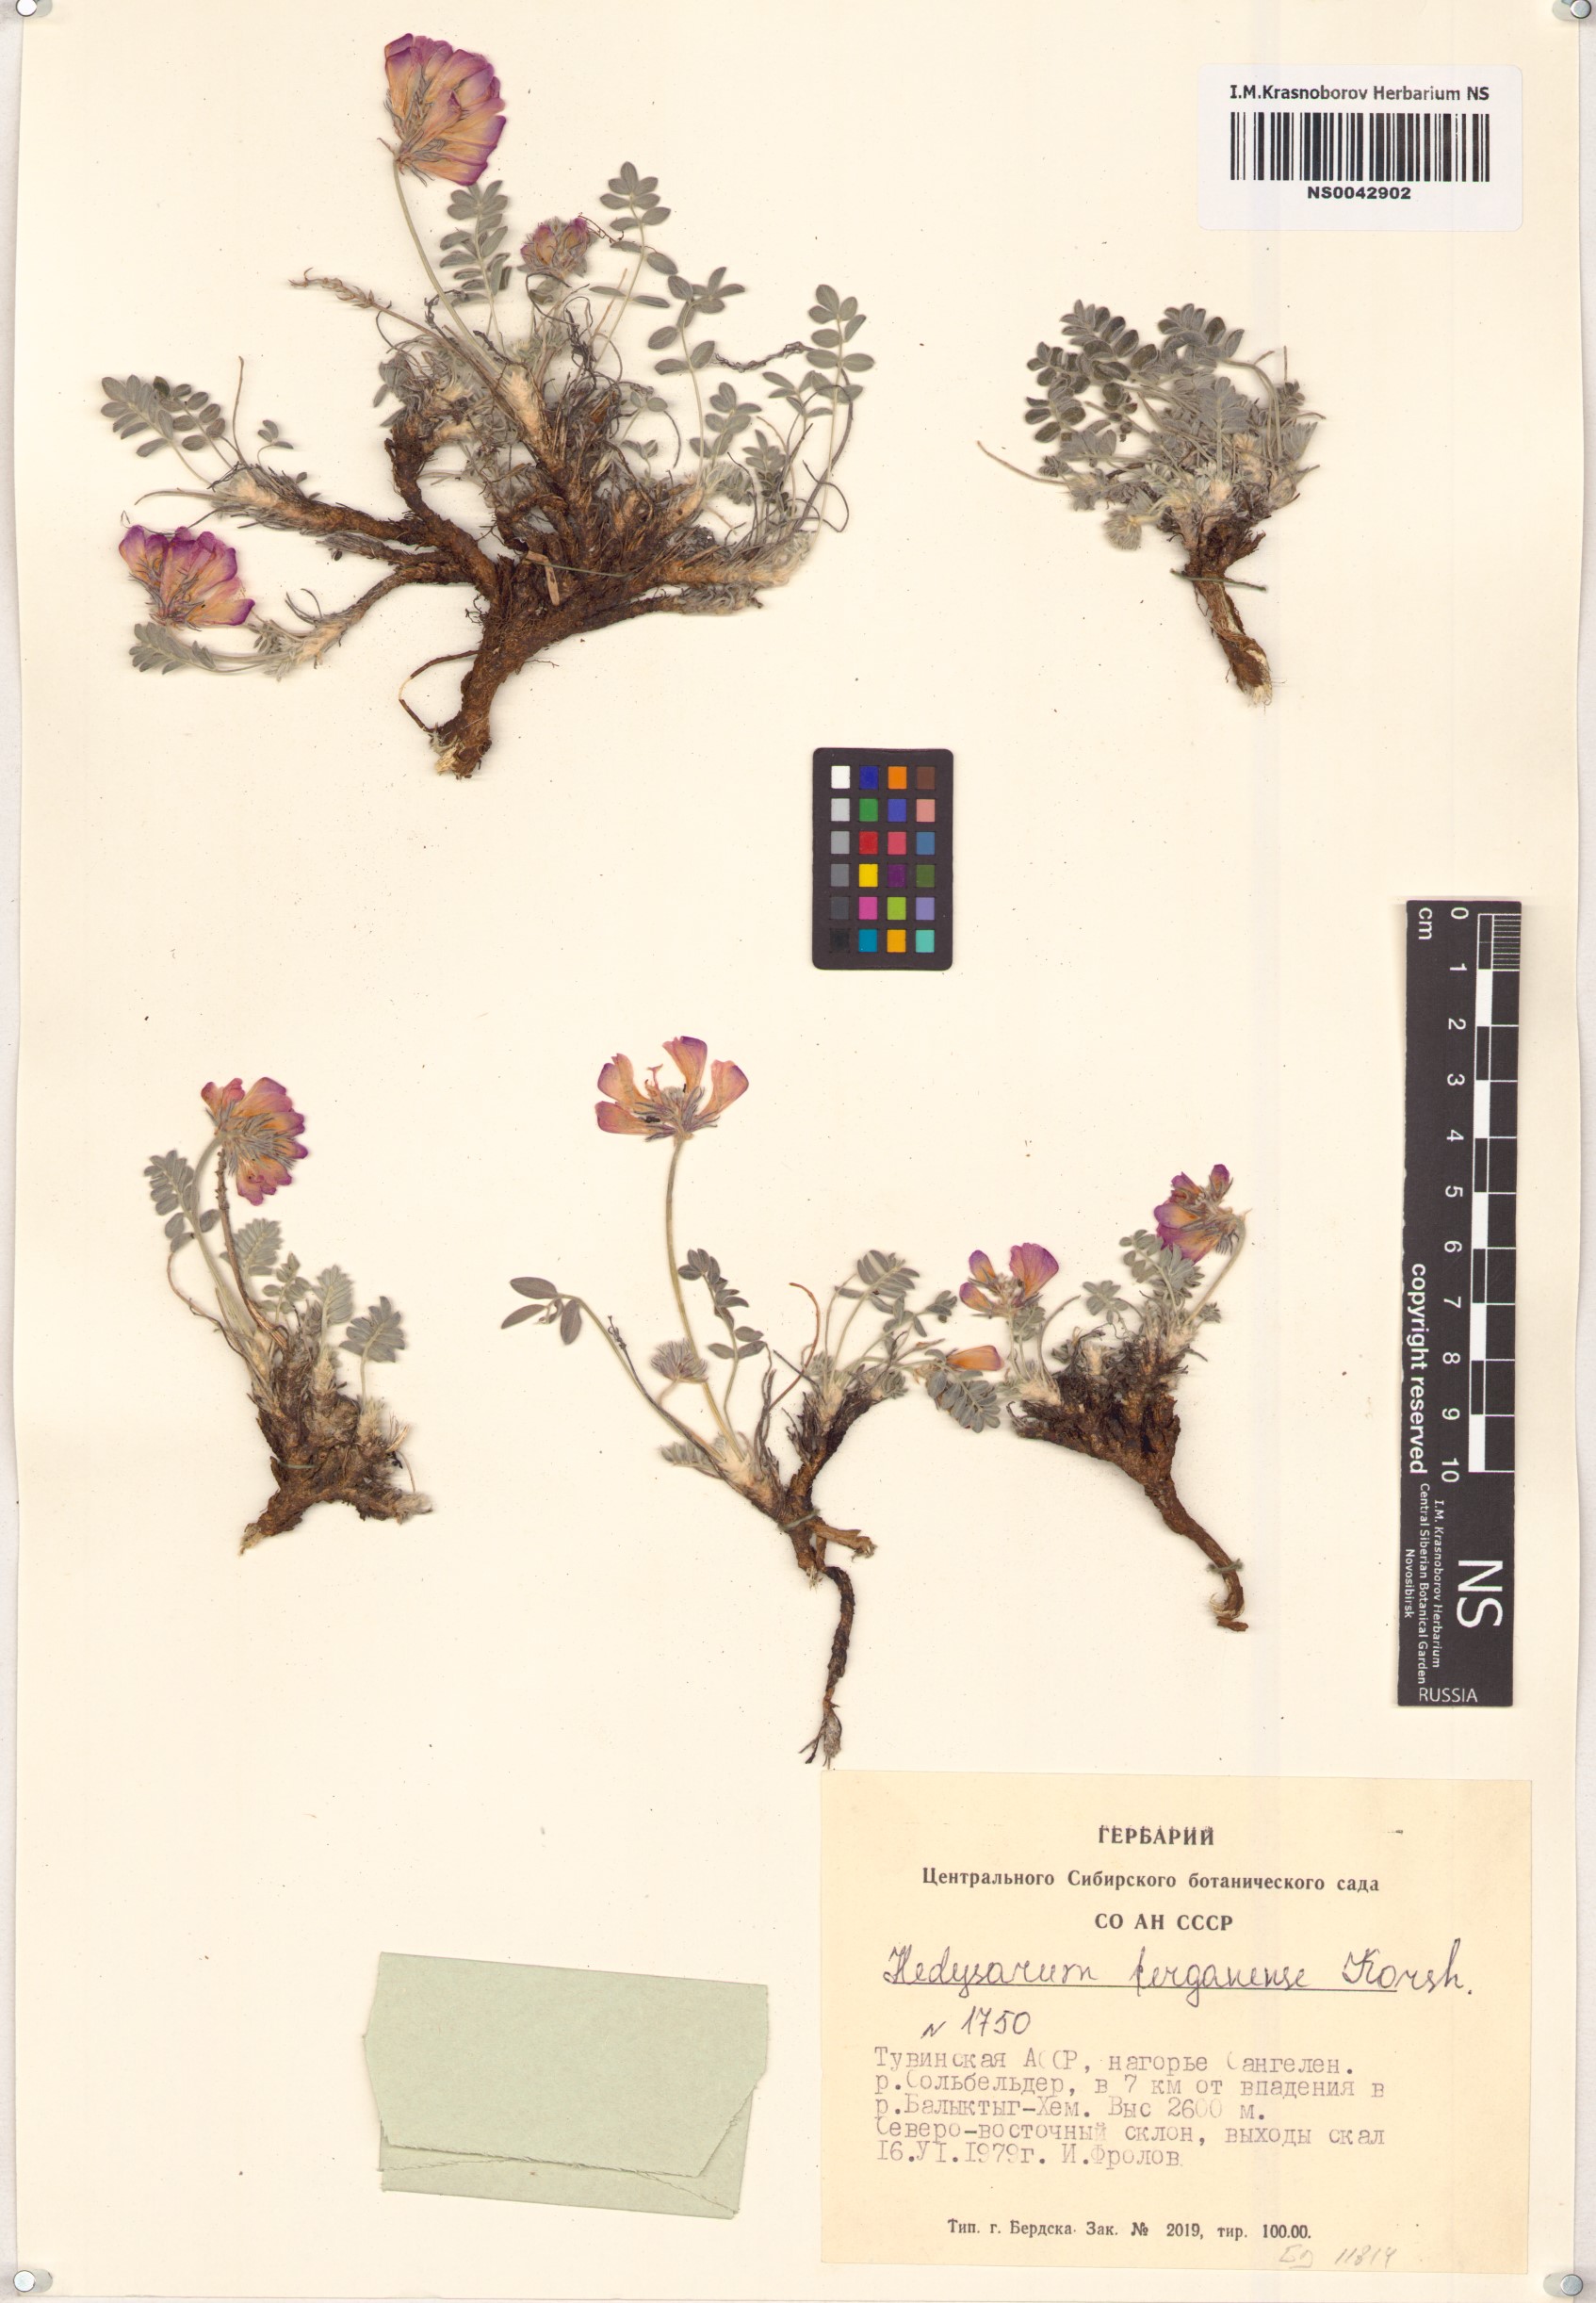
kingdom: Plantae
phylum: Tracheophyta
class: Magnoliopsida
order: Fabales
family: Fabaceae
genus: Hedysarum
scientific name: Hedysarum ferganense
